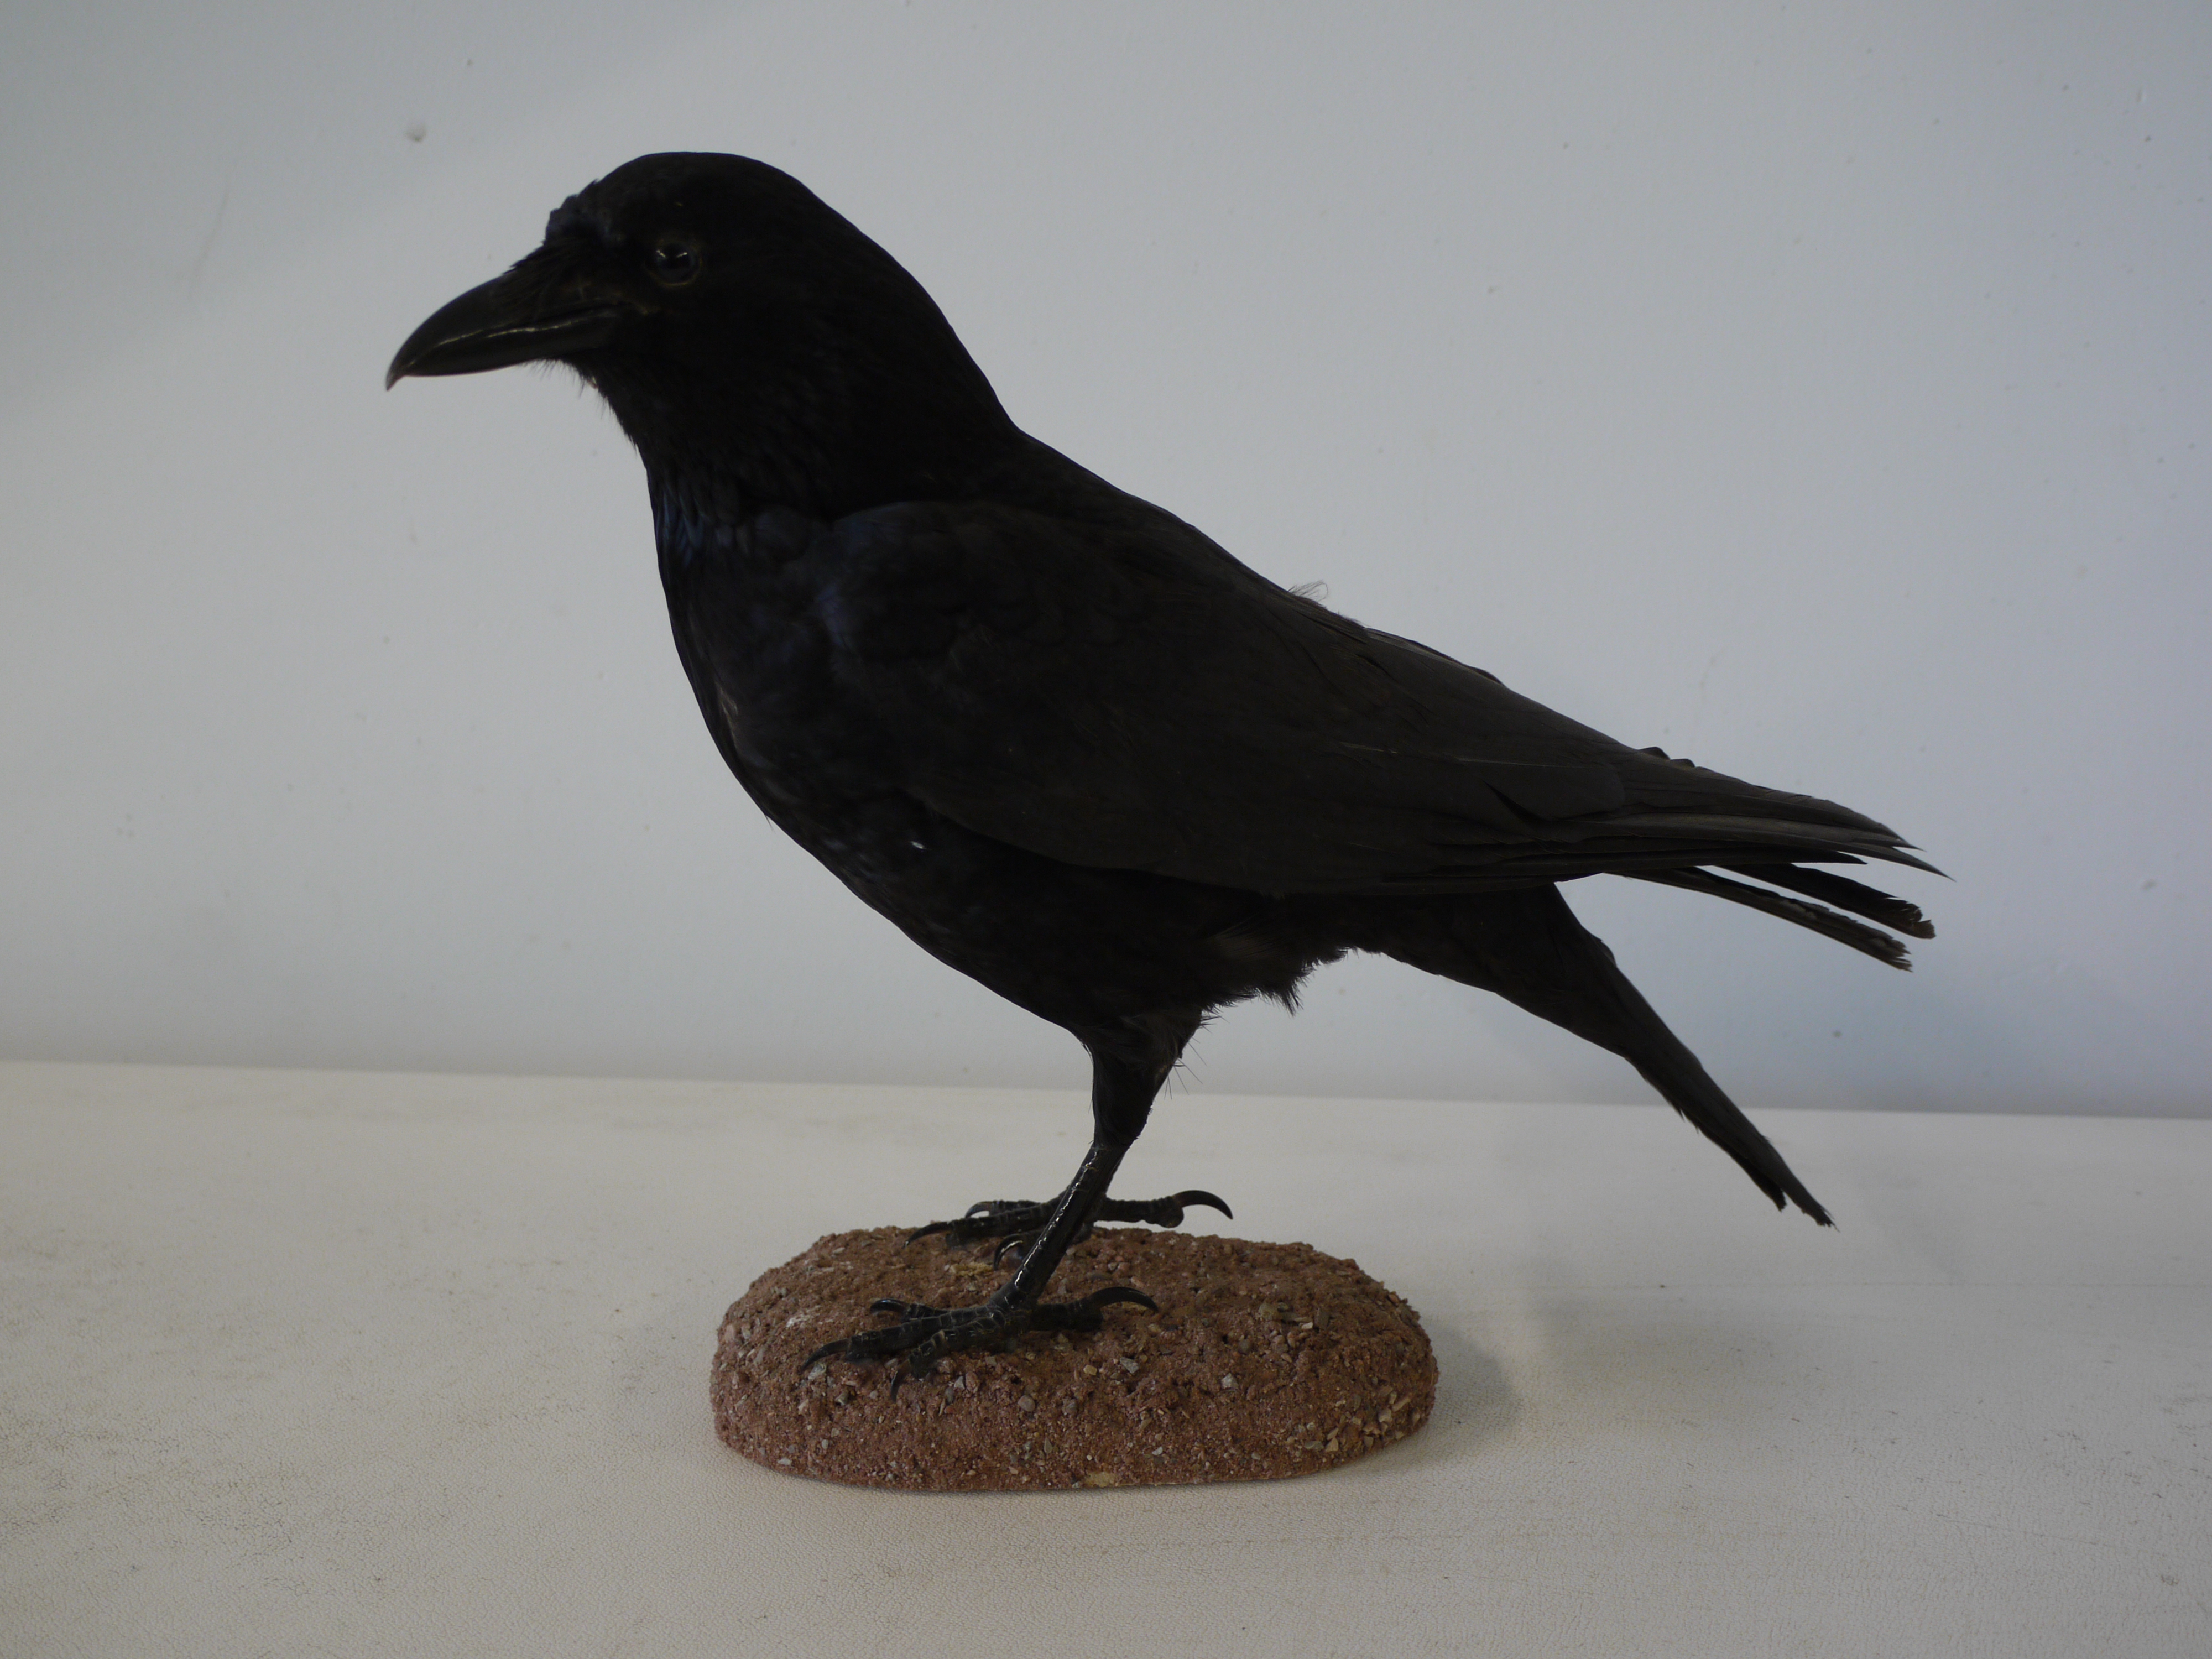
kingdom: Animalia
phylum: Chordata
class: Aves
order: Passeriformes
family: Corvidae
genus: Corvus
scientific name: Corvus corone
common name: Carrion crow
